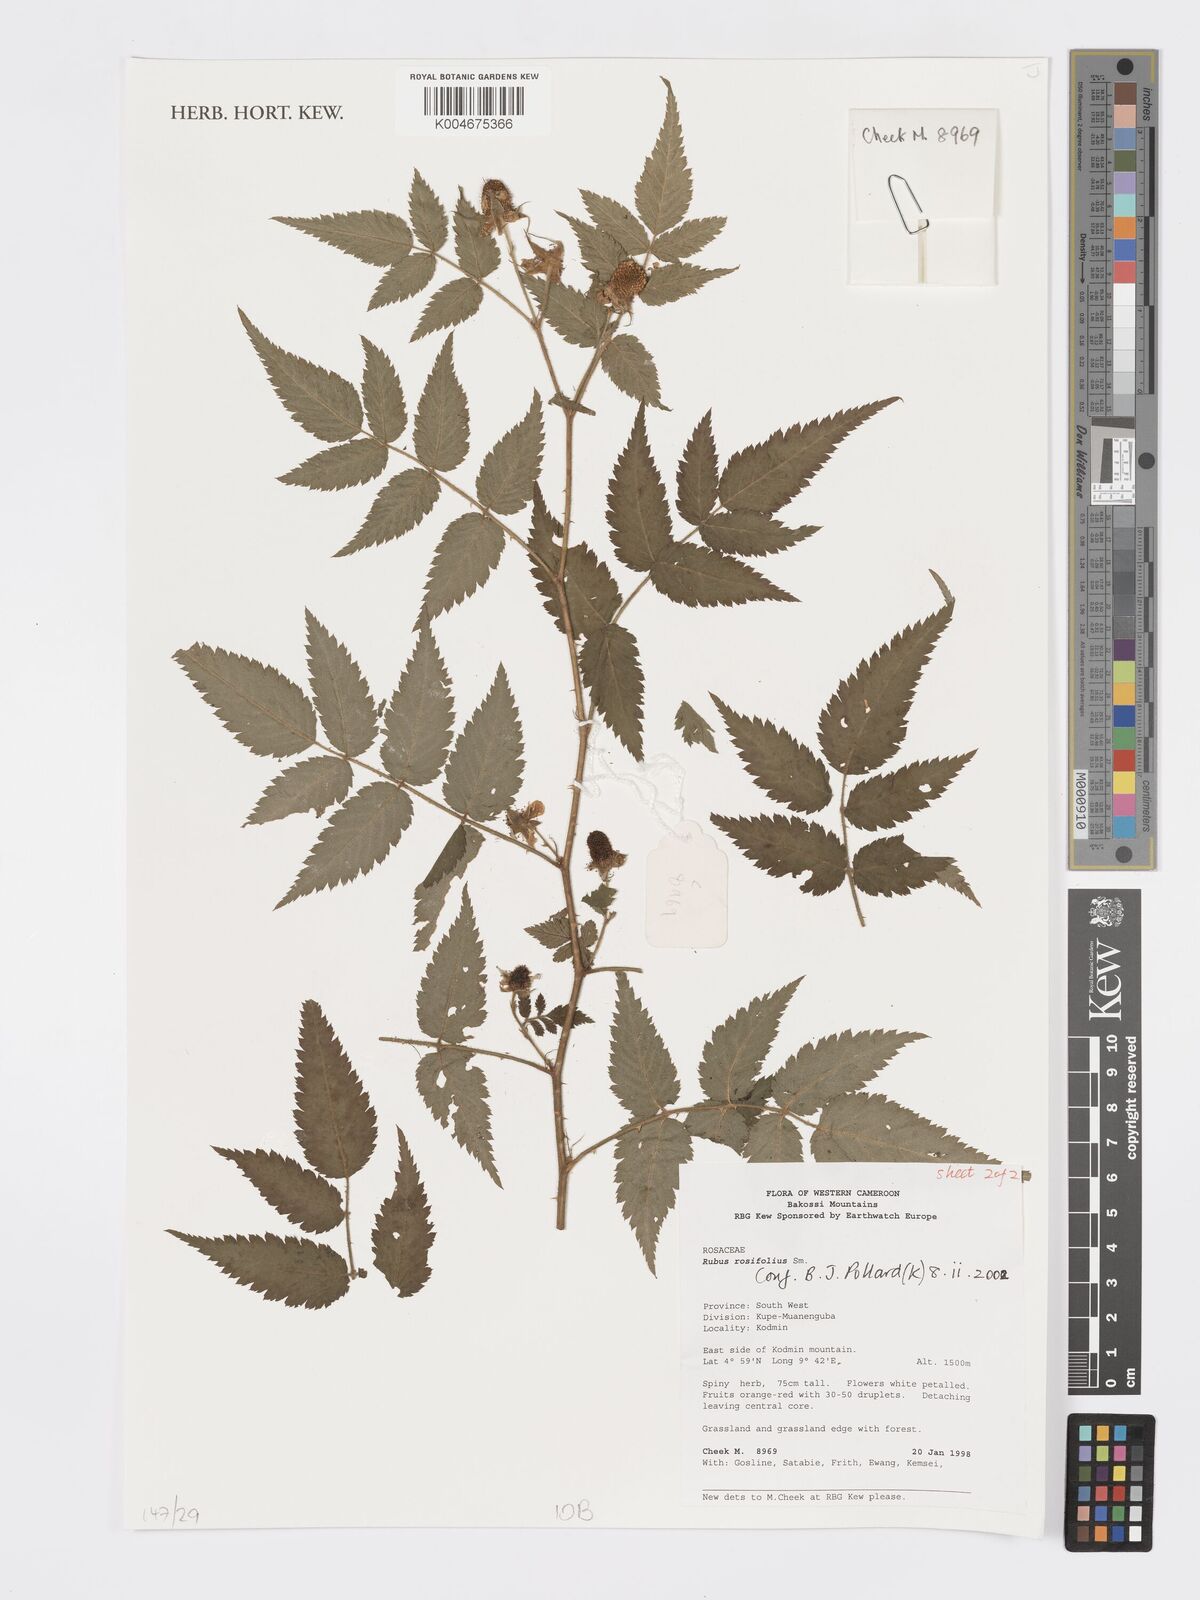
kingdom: Plantae
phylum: Tracheophyta
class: Magnoliopsida
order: Rosales
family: Rosaceae
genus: Rubus
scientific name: Rubus
